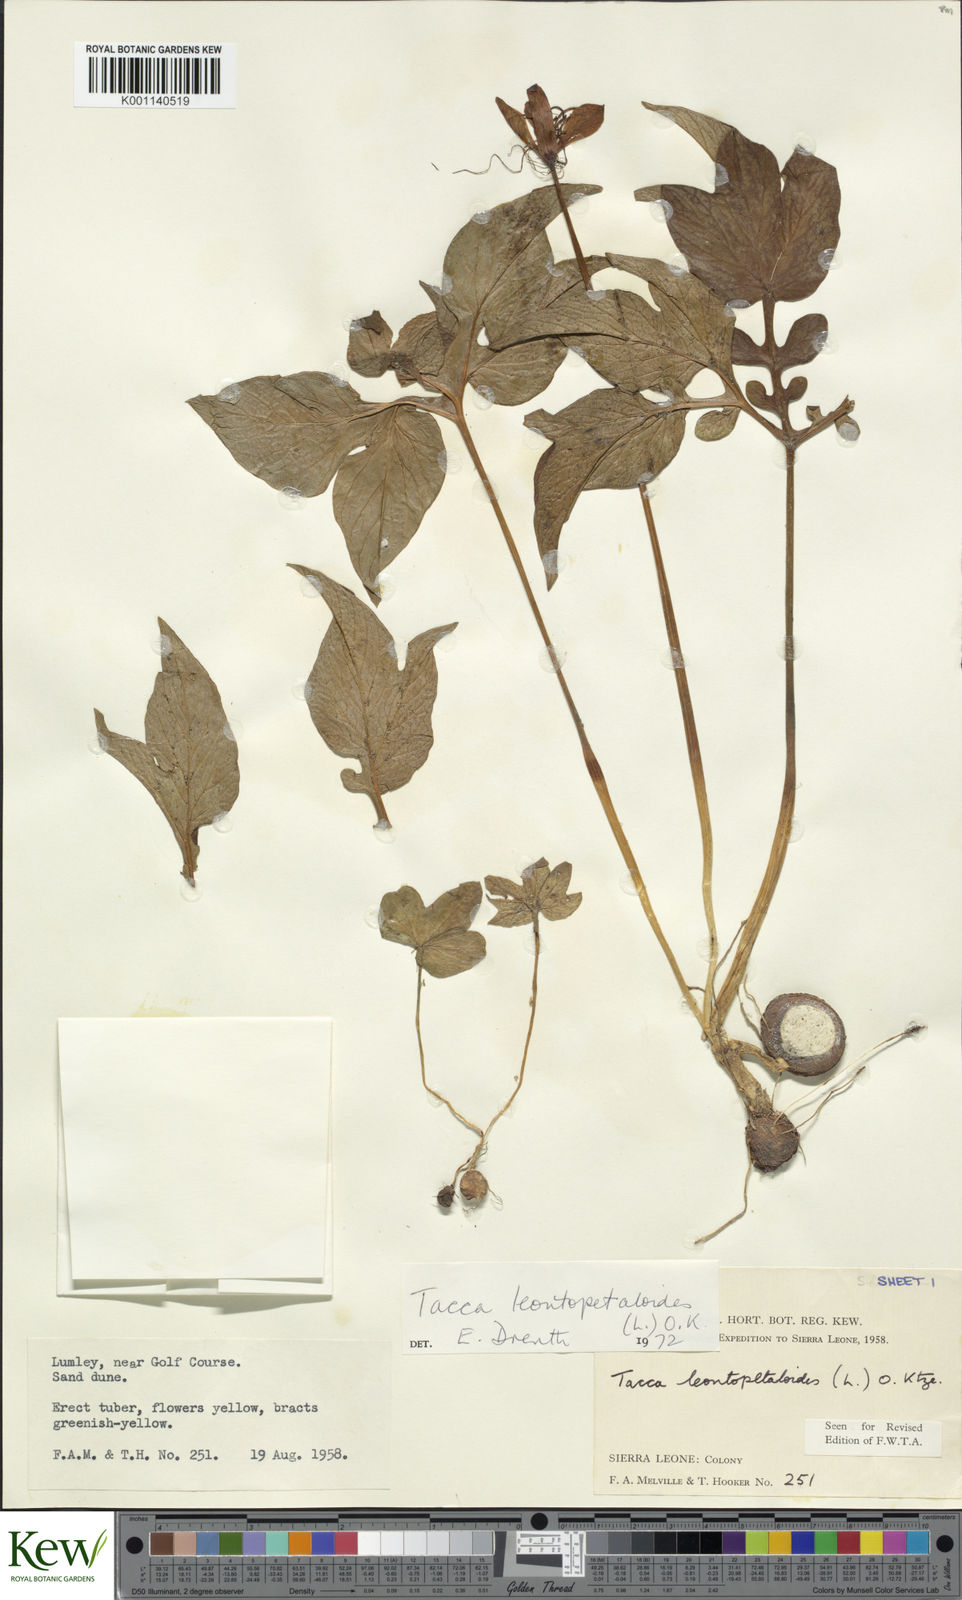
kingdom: Plantae
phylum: Tracheophyta
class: Liliopsida
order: Dioscoreales
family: Dioscoreaceae
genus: Tacca
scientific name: Tacca leontopetaloides
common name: Arrowroot
